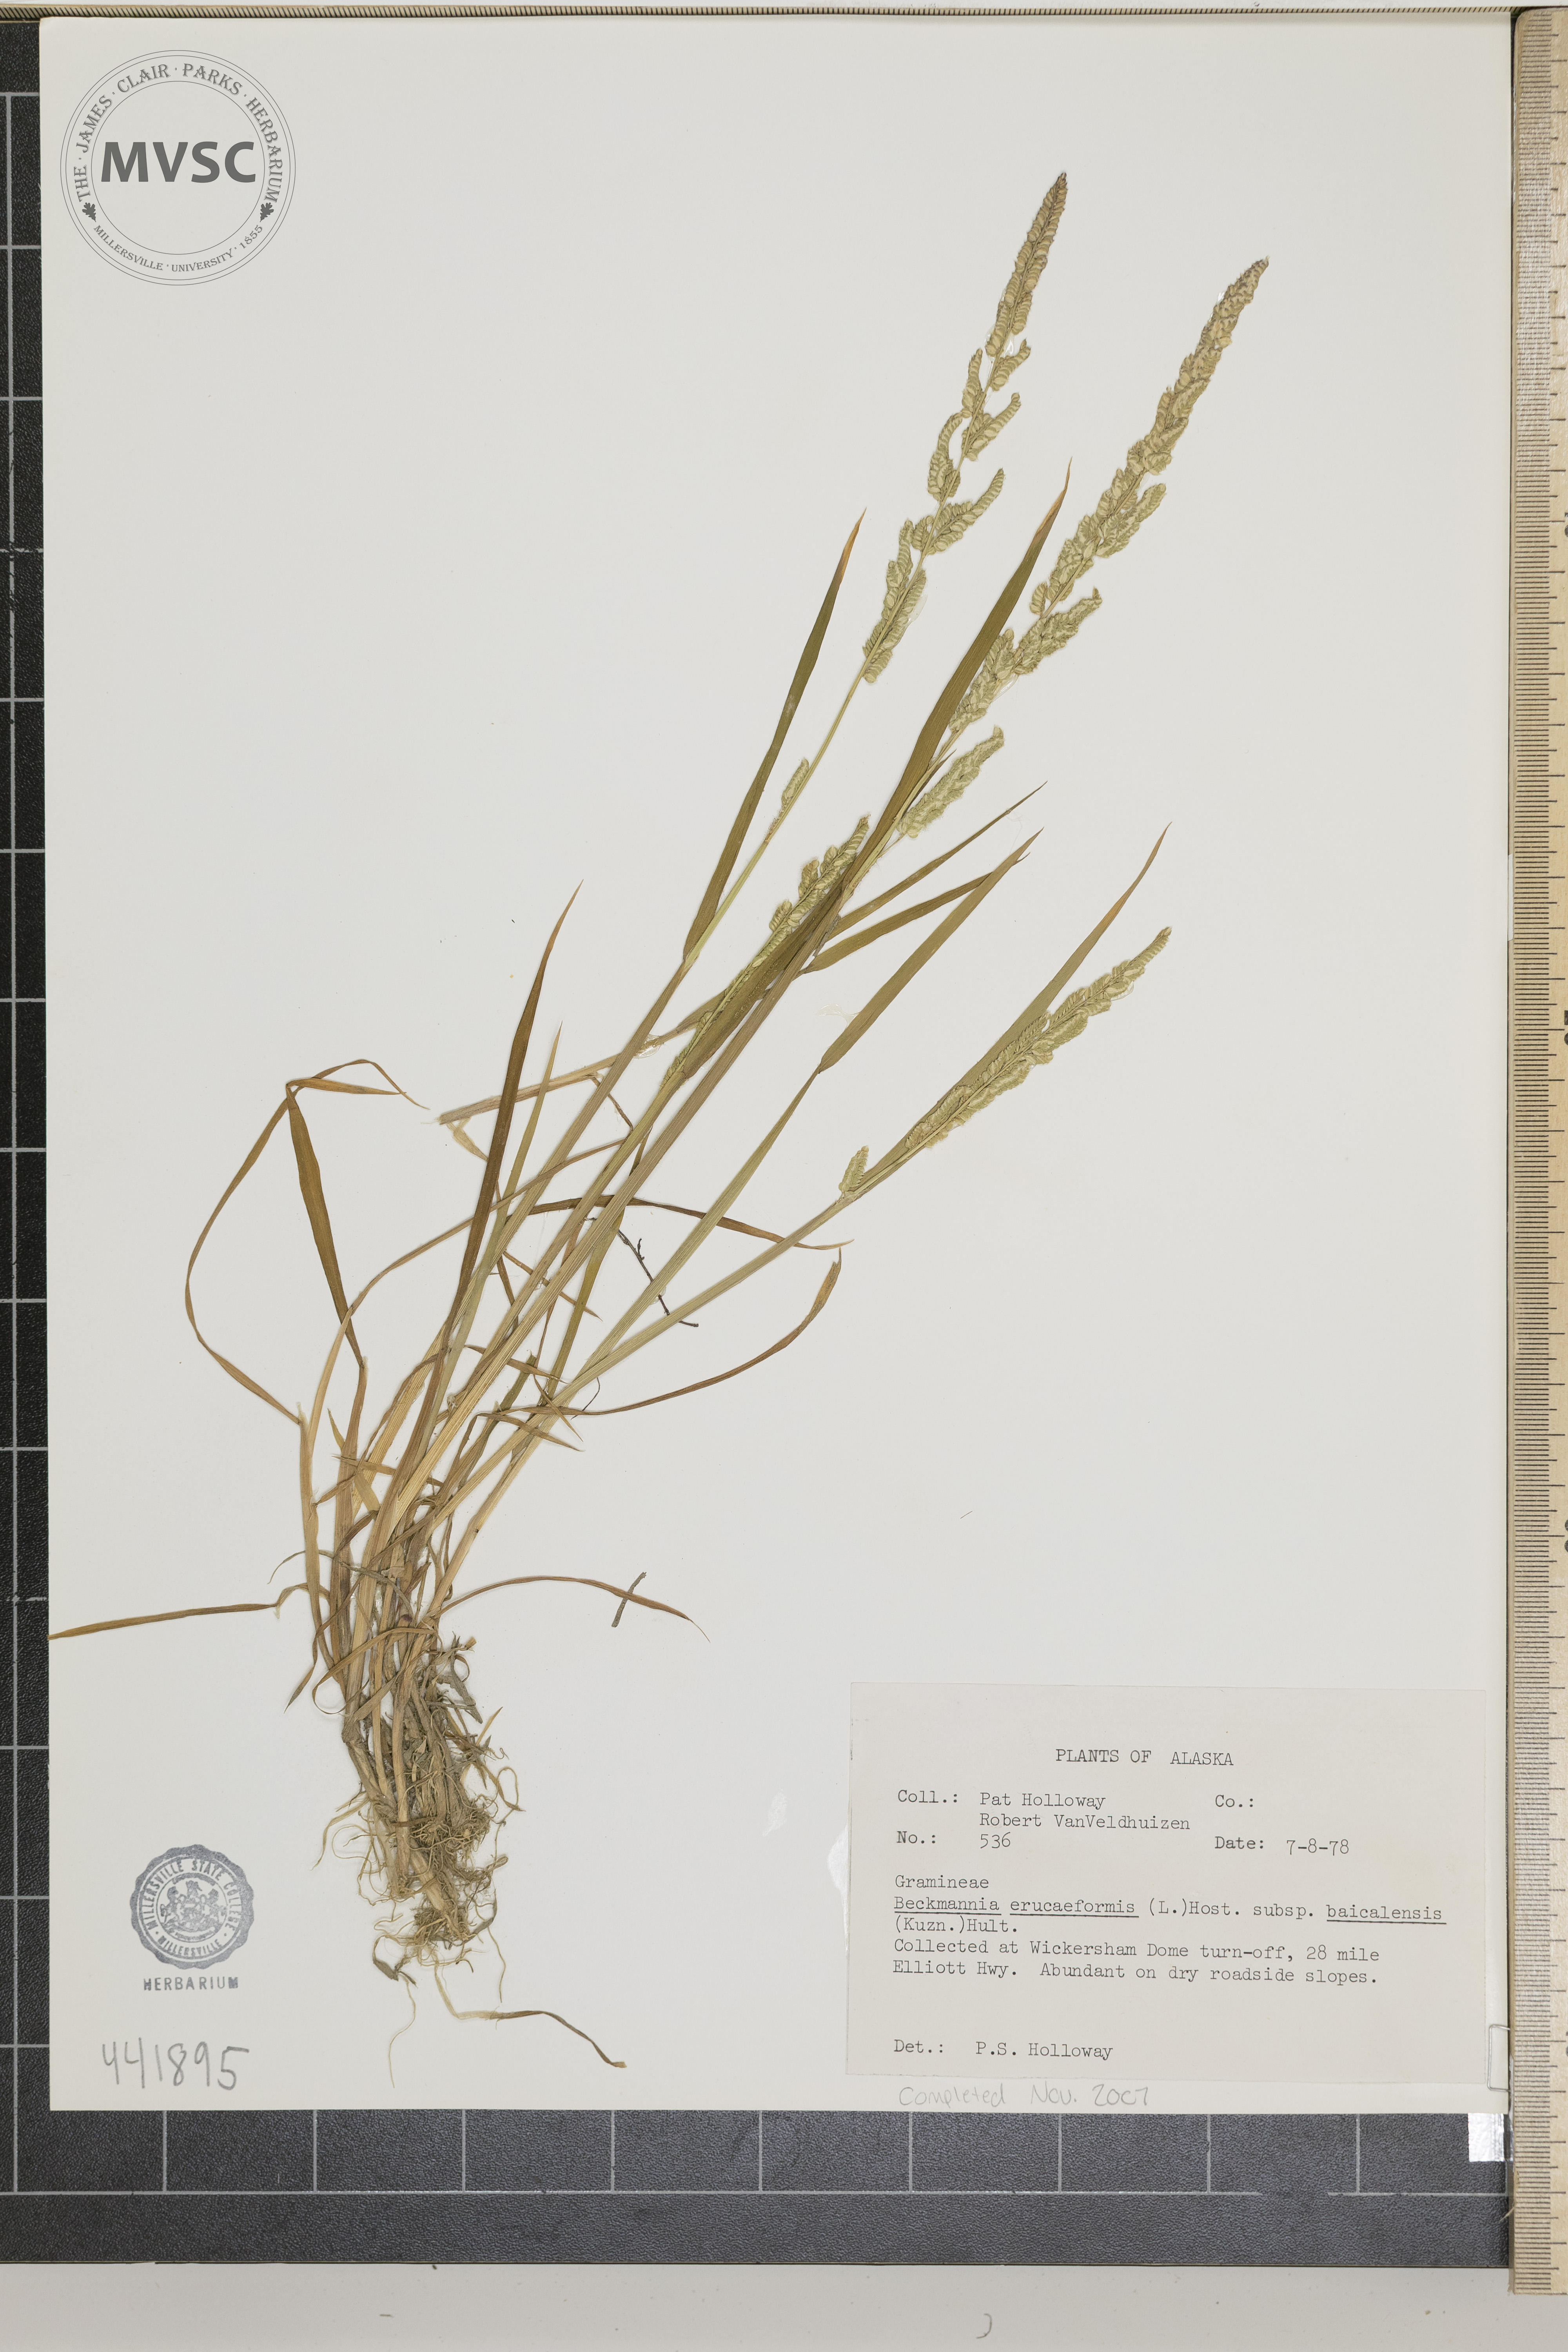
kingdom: Plantae
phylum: Tracheophyta
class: Liliopsida
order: Poales
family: Poaceae
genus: Beckmannia
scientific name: Beckmannia eruciformis
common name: European slough-grass
